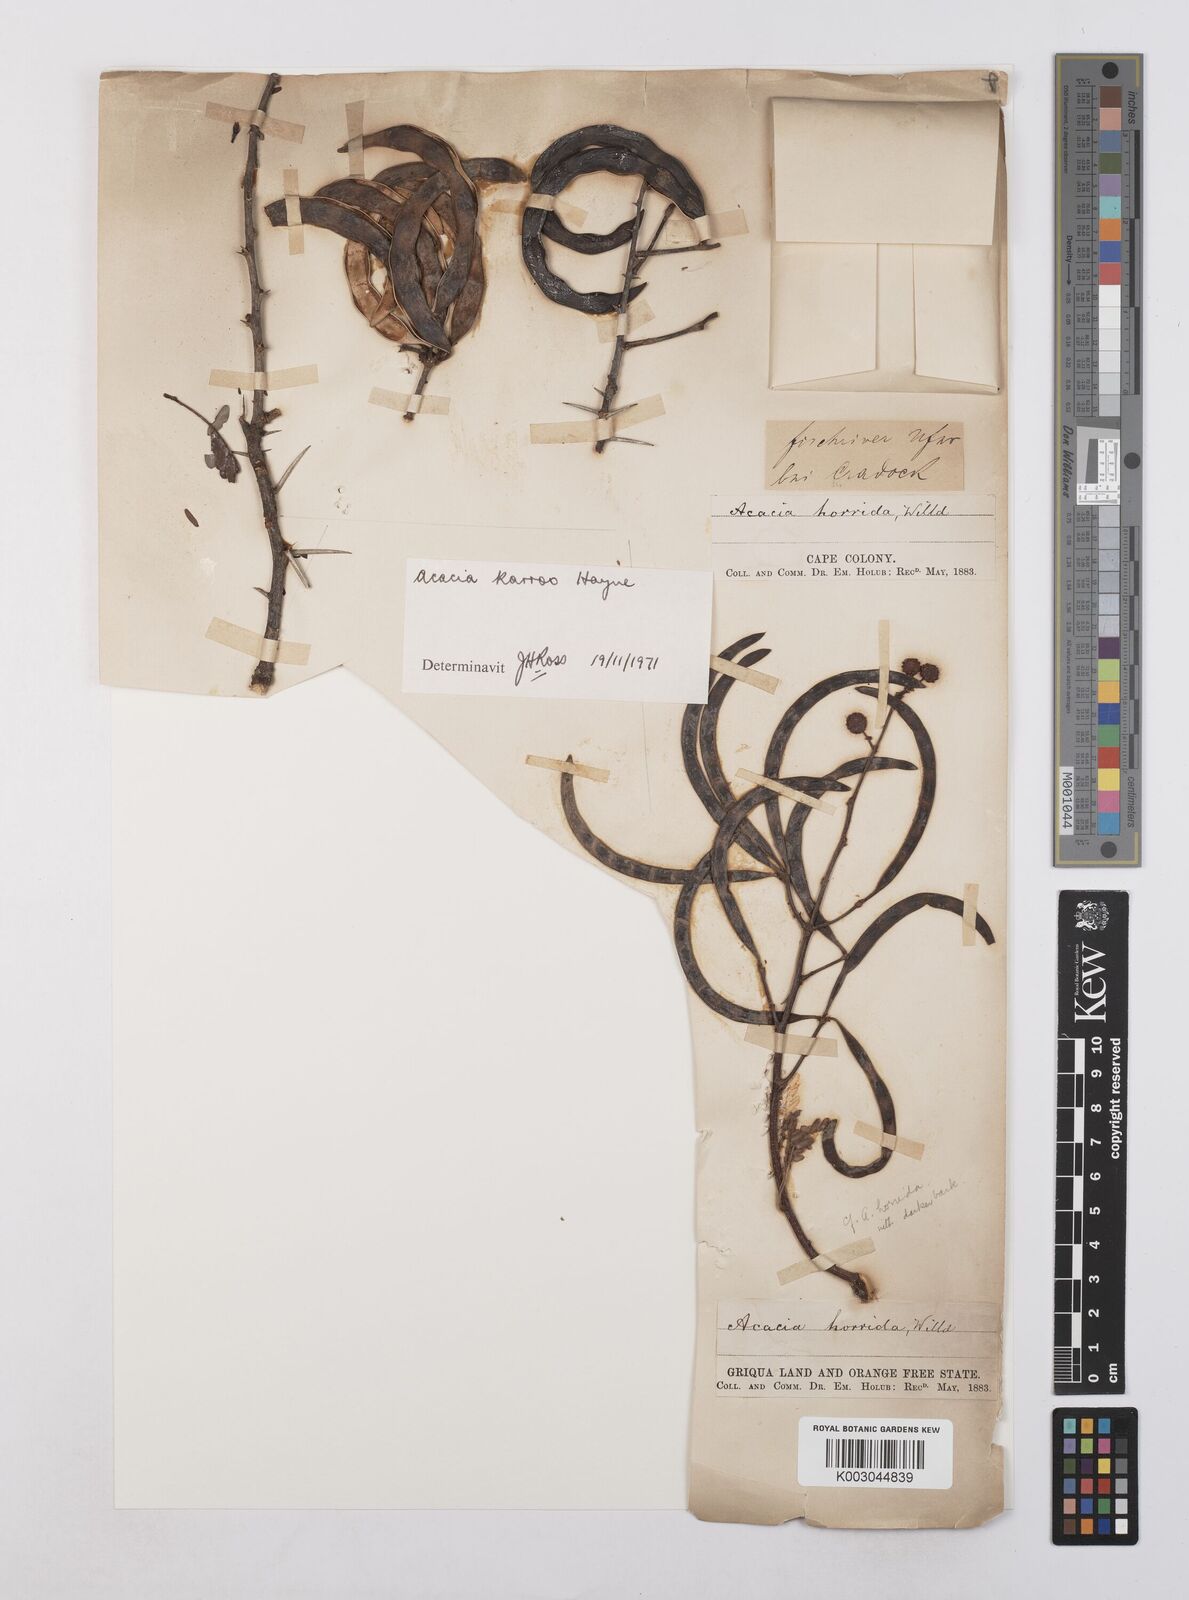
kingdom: Plantae
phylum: Tracheophyta
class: Magnoliopsida
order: Fabales
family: Fabaceae
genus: Vachellia
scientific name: Vachellia karroo
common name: Sweet thorn
